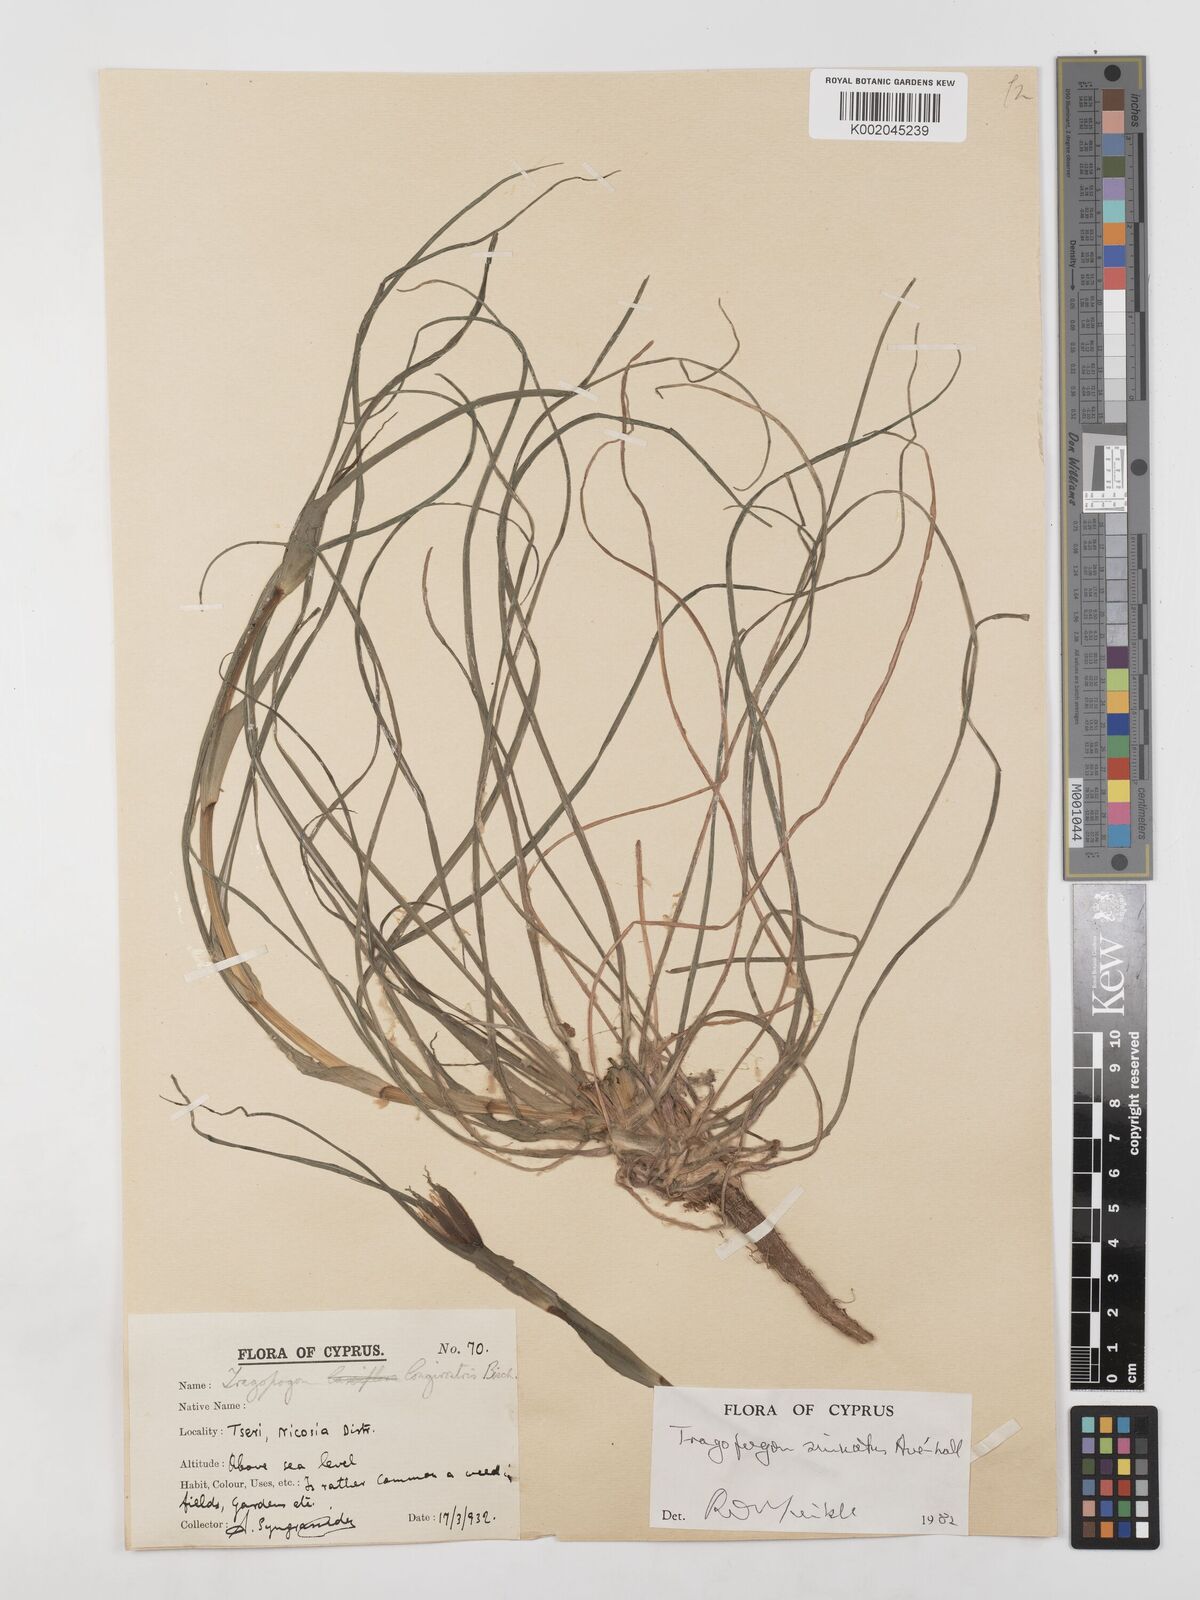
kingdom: Plantae
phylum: Tracheophyta
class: Magnoliopsida
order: Asterales
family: Asteraceae
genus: Tragopogon
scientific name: Tragopogon porrifolius
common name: Salsify
